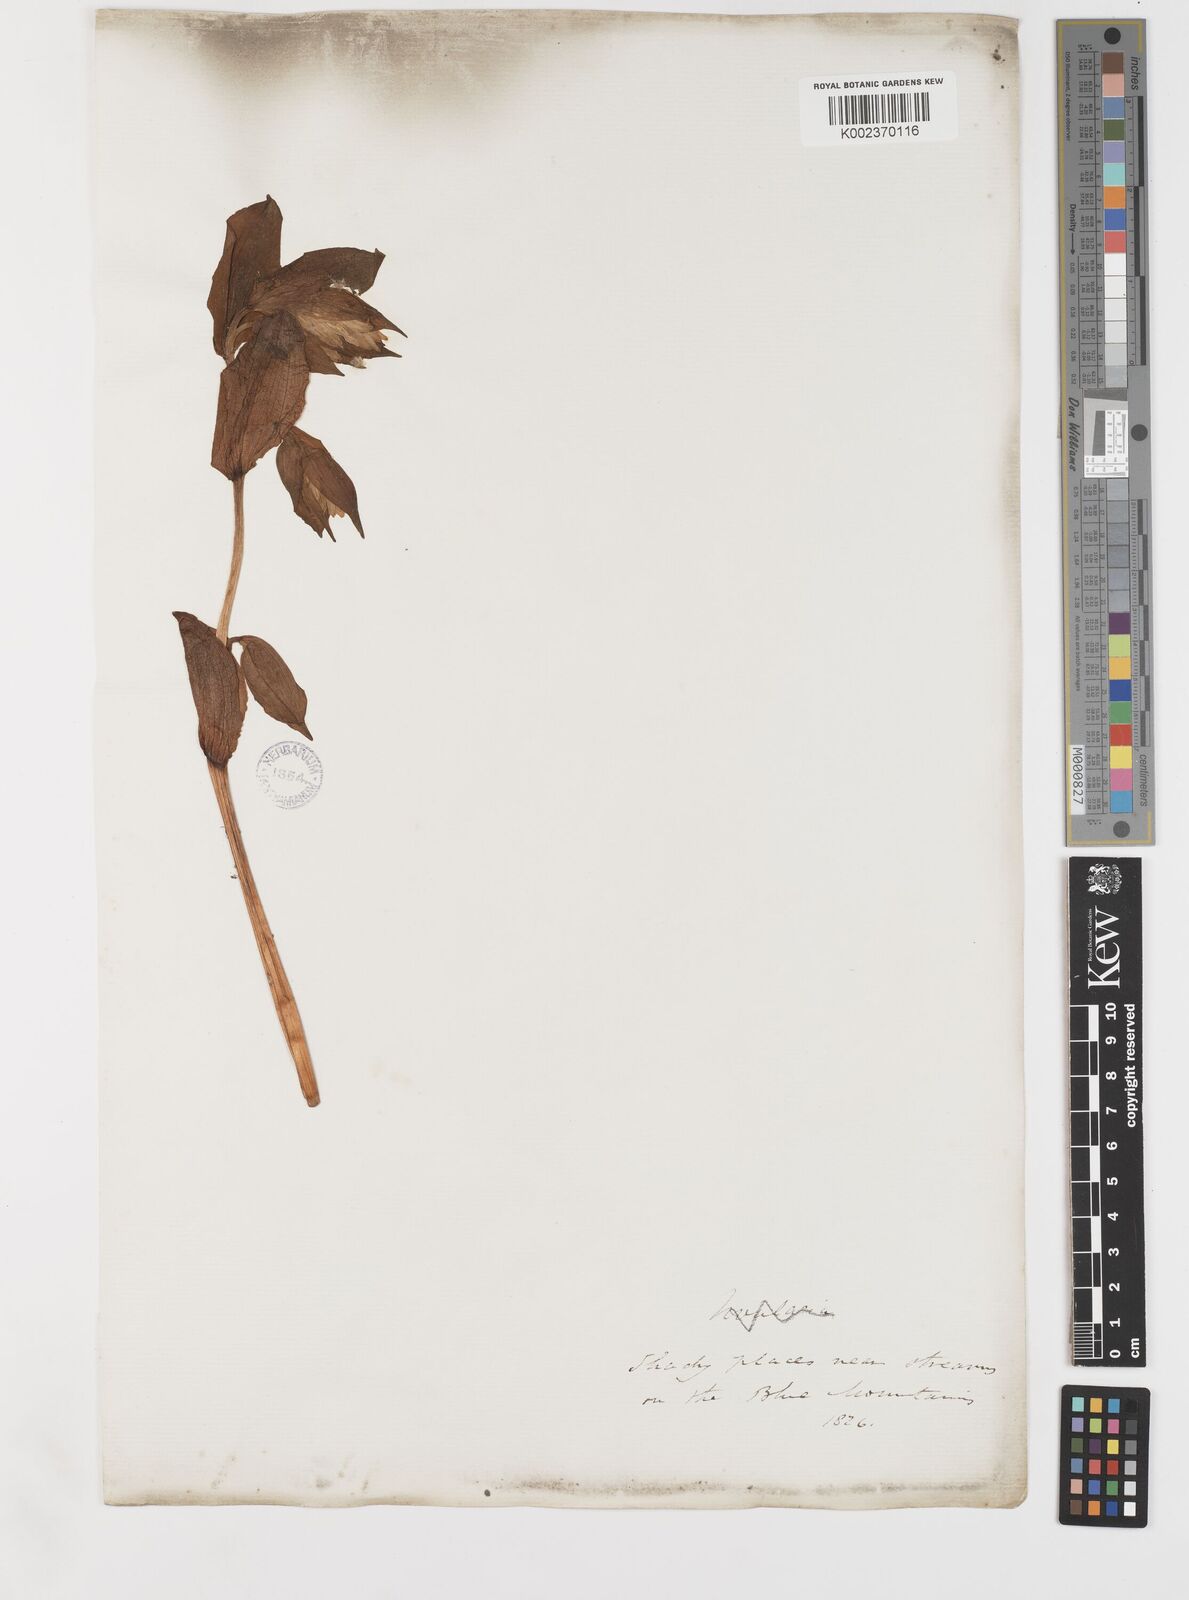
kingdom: Plantae
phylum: Tracheophyta
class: Liliopsida
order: Liliales
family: Liliaceae
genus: Prosartes
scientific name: Prosartes hookeri
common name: Fairy-bells
